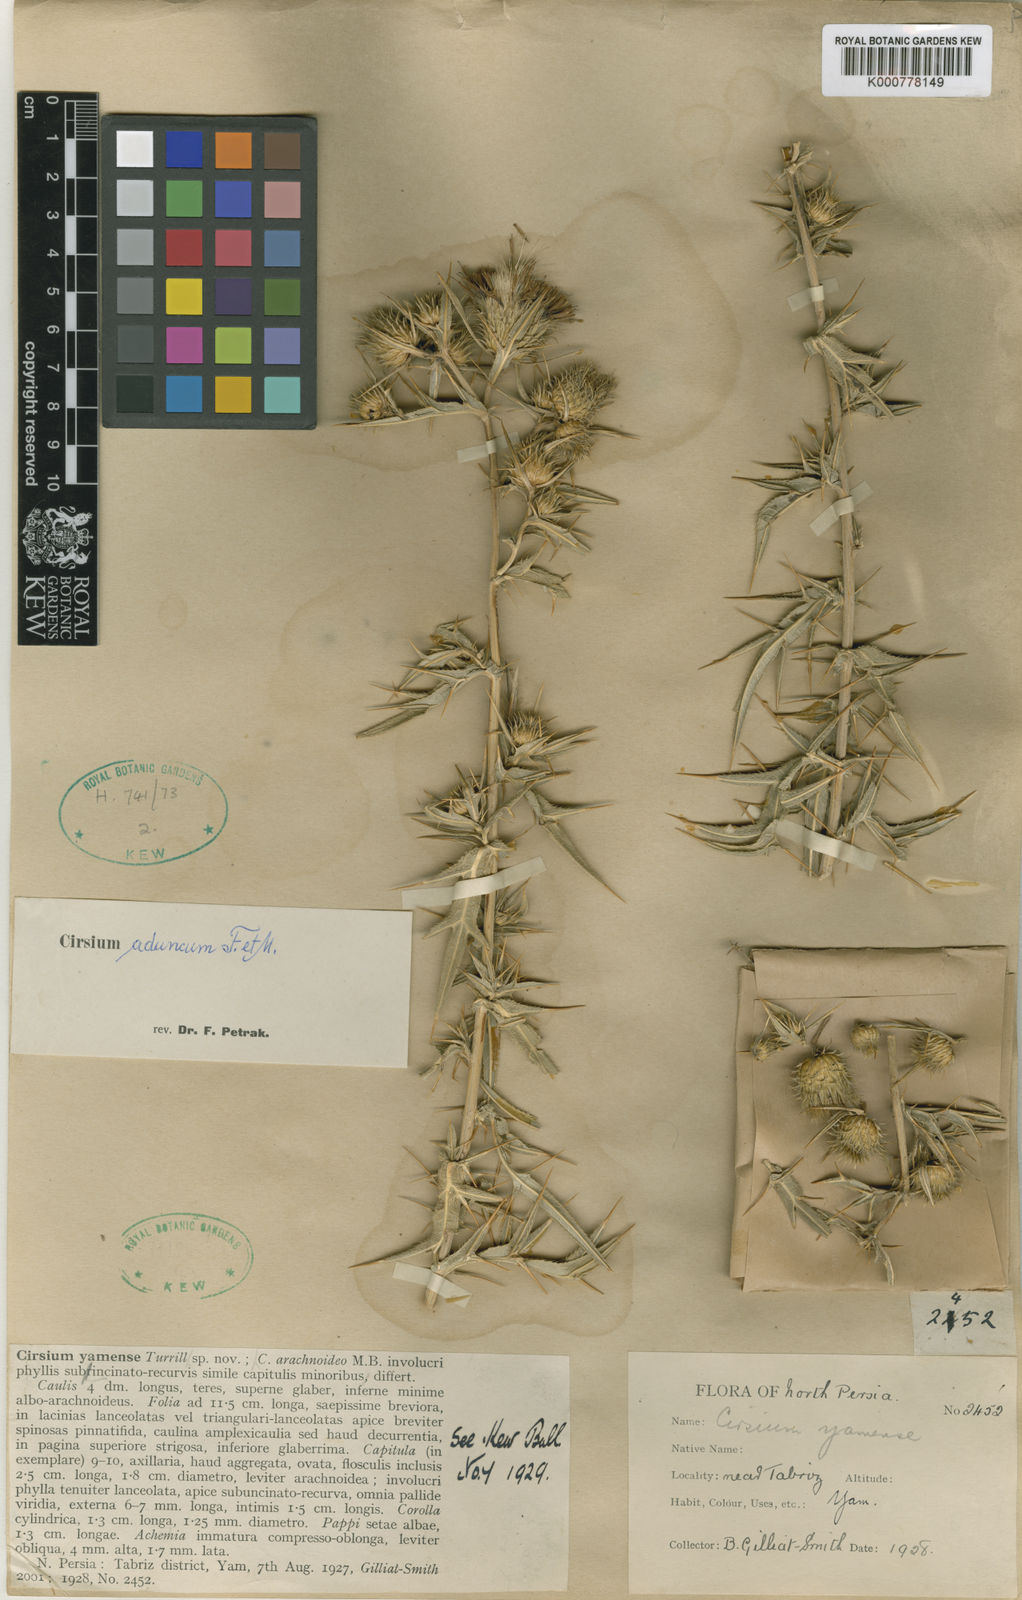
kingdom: Plantae
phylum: Tracheophyta
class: Magnoliopsida
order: Asterales
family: Asteraceae
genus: Lophiolepis
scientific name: Lophiolepis rigida
